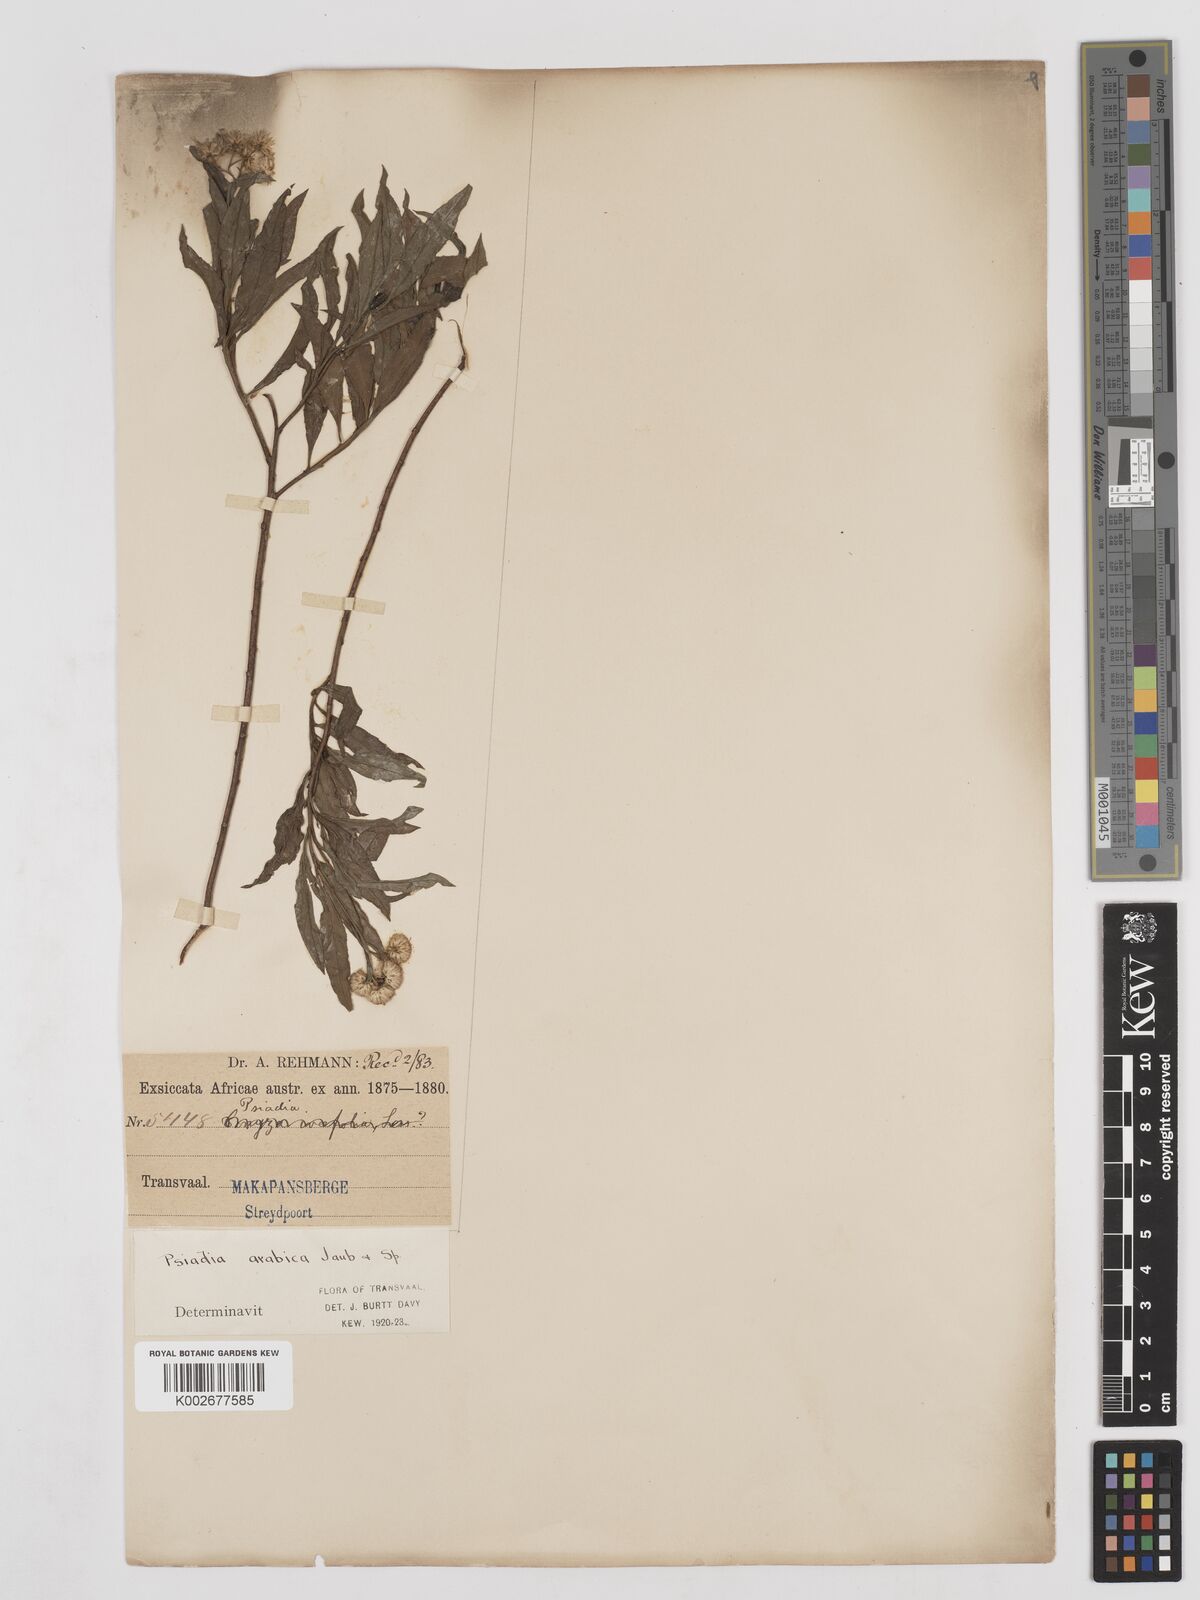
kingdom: Plantae
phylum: Tracheophyta
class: Magnoliopsida
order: Asterales
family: Asteraceae
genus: Psiadia
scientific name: Psiadia punctulata
